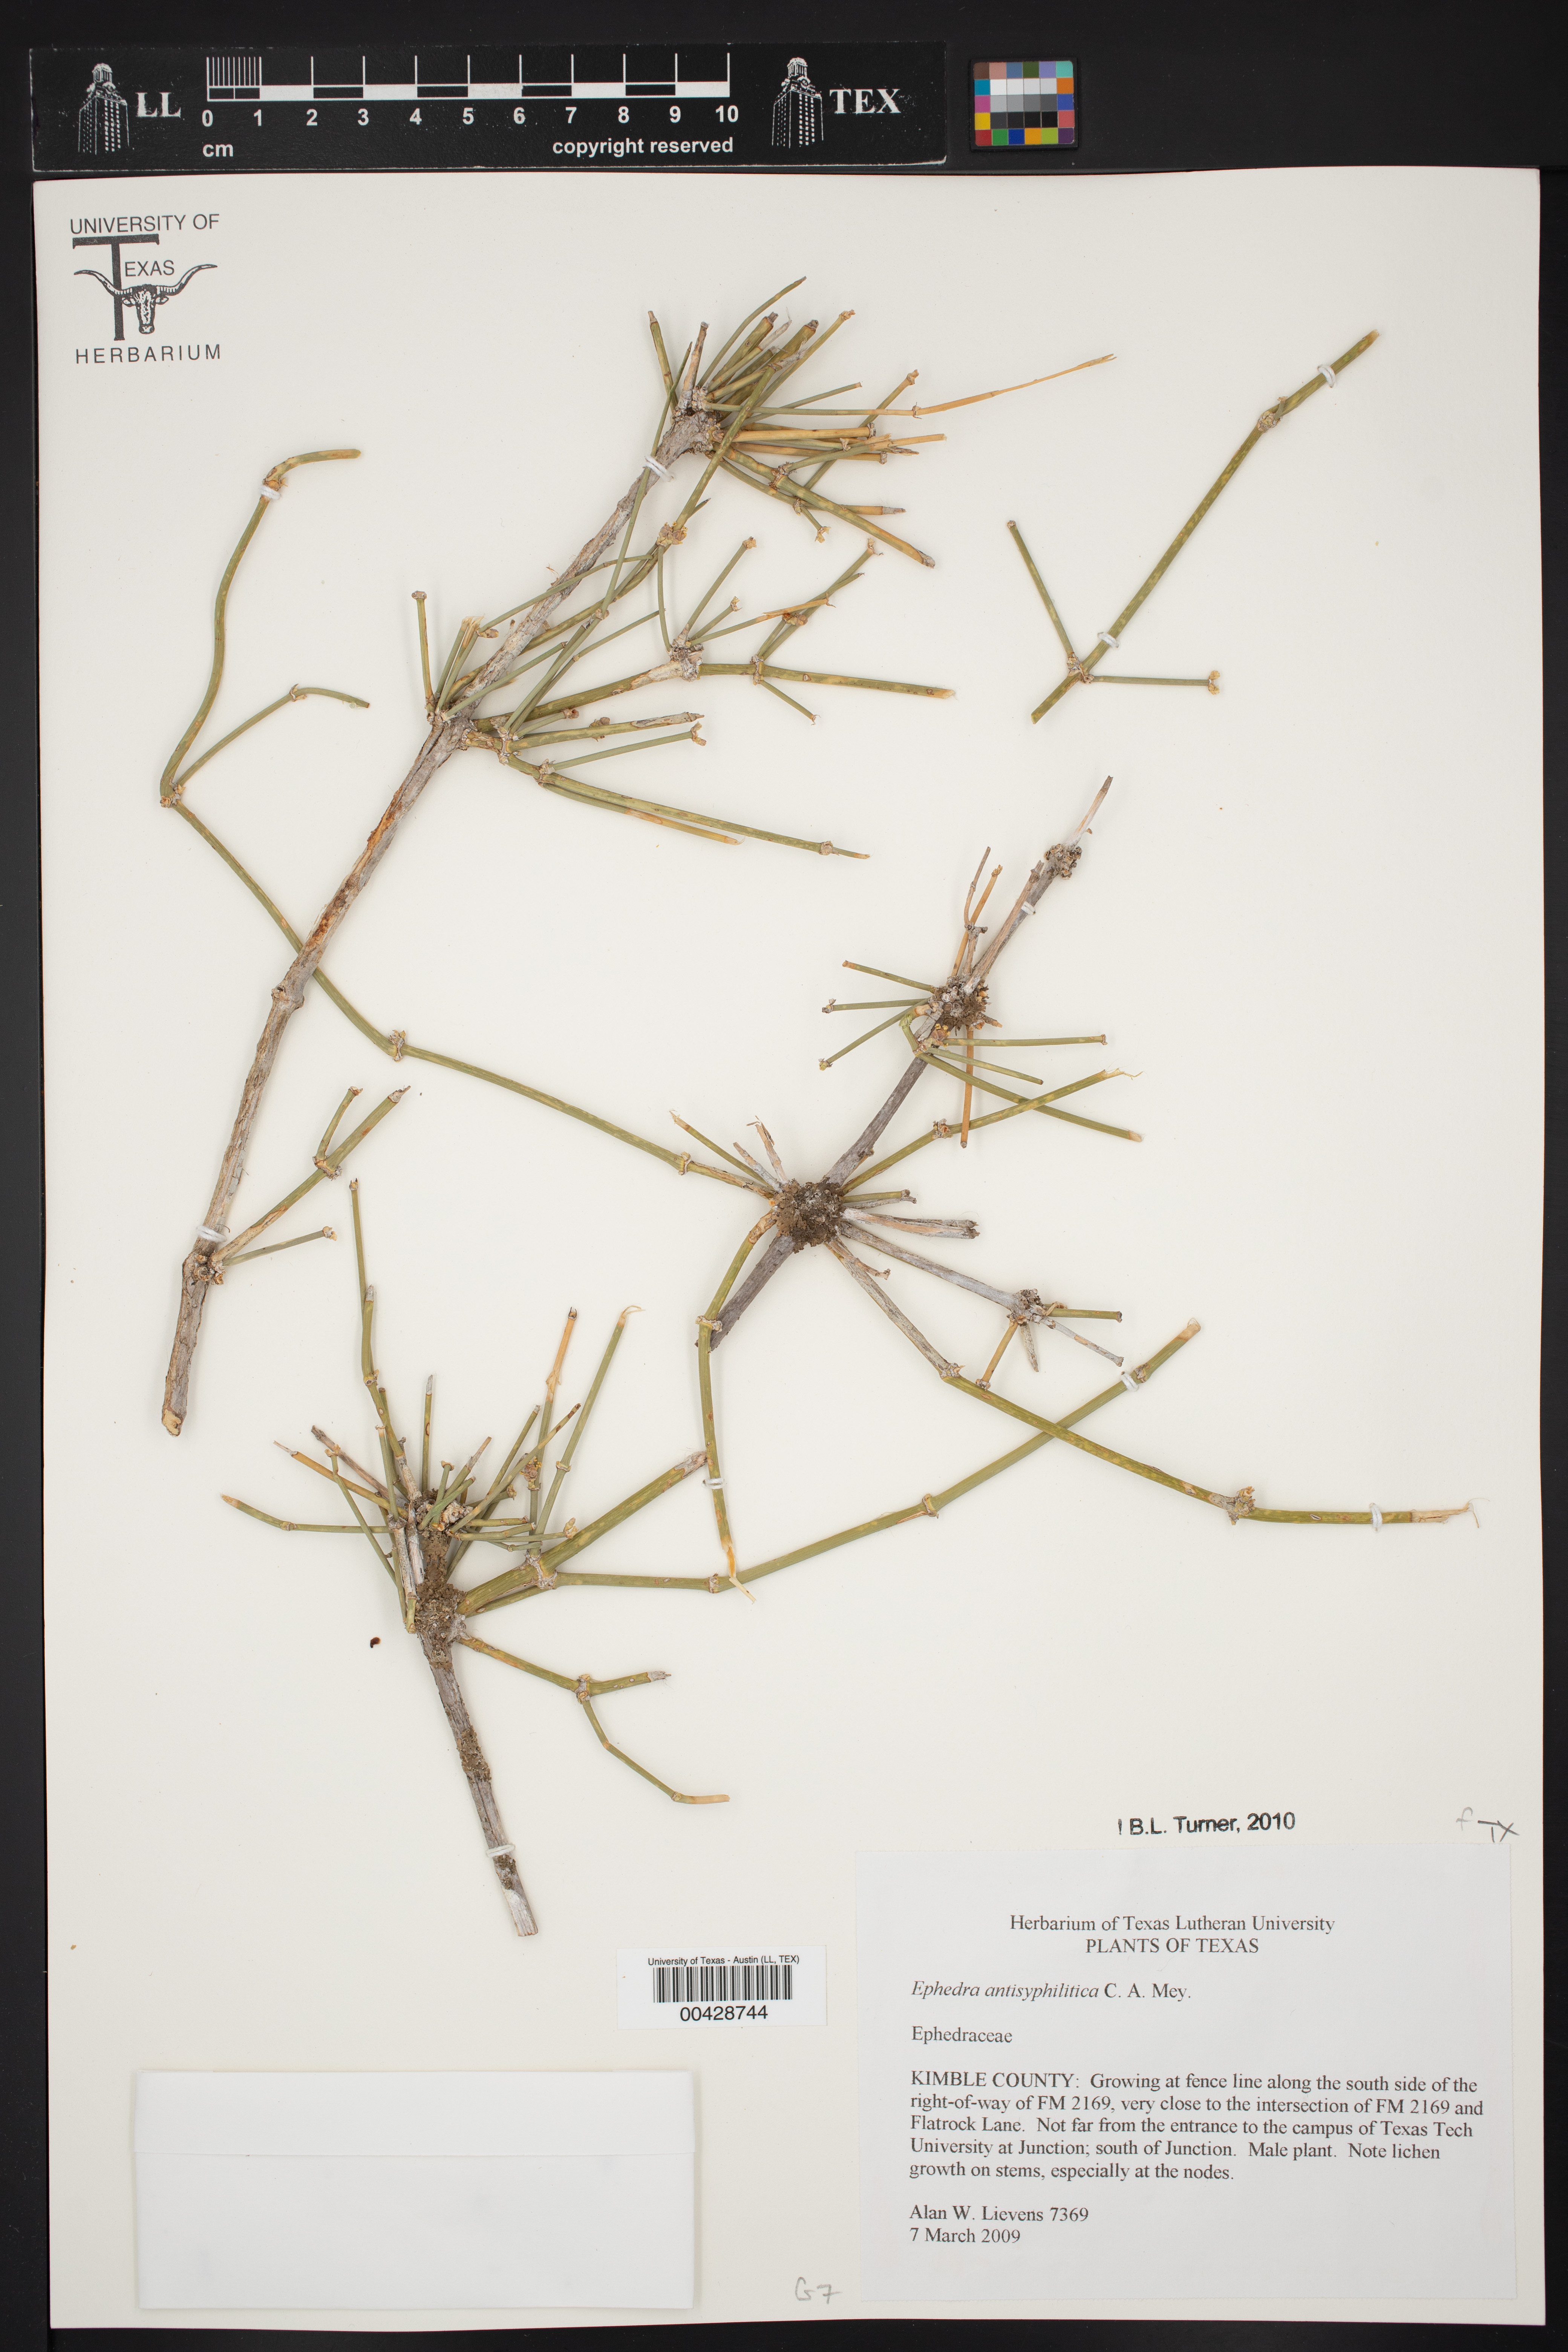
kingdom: Plantae
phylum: Tracheophyta
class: Gnetopsida
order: Ephedrales
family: Ephedraceae
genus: Ephedra
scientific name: Ephedra antisyphilitica
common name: Clipweed
